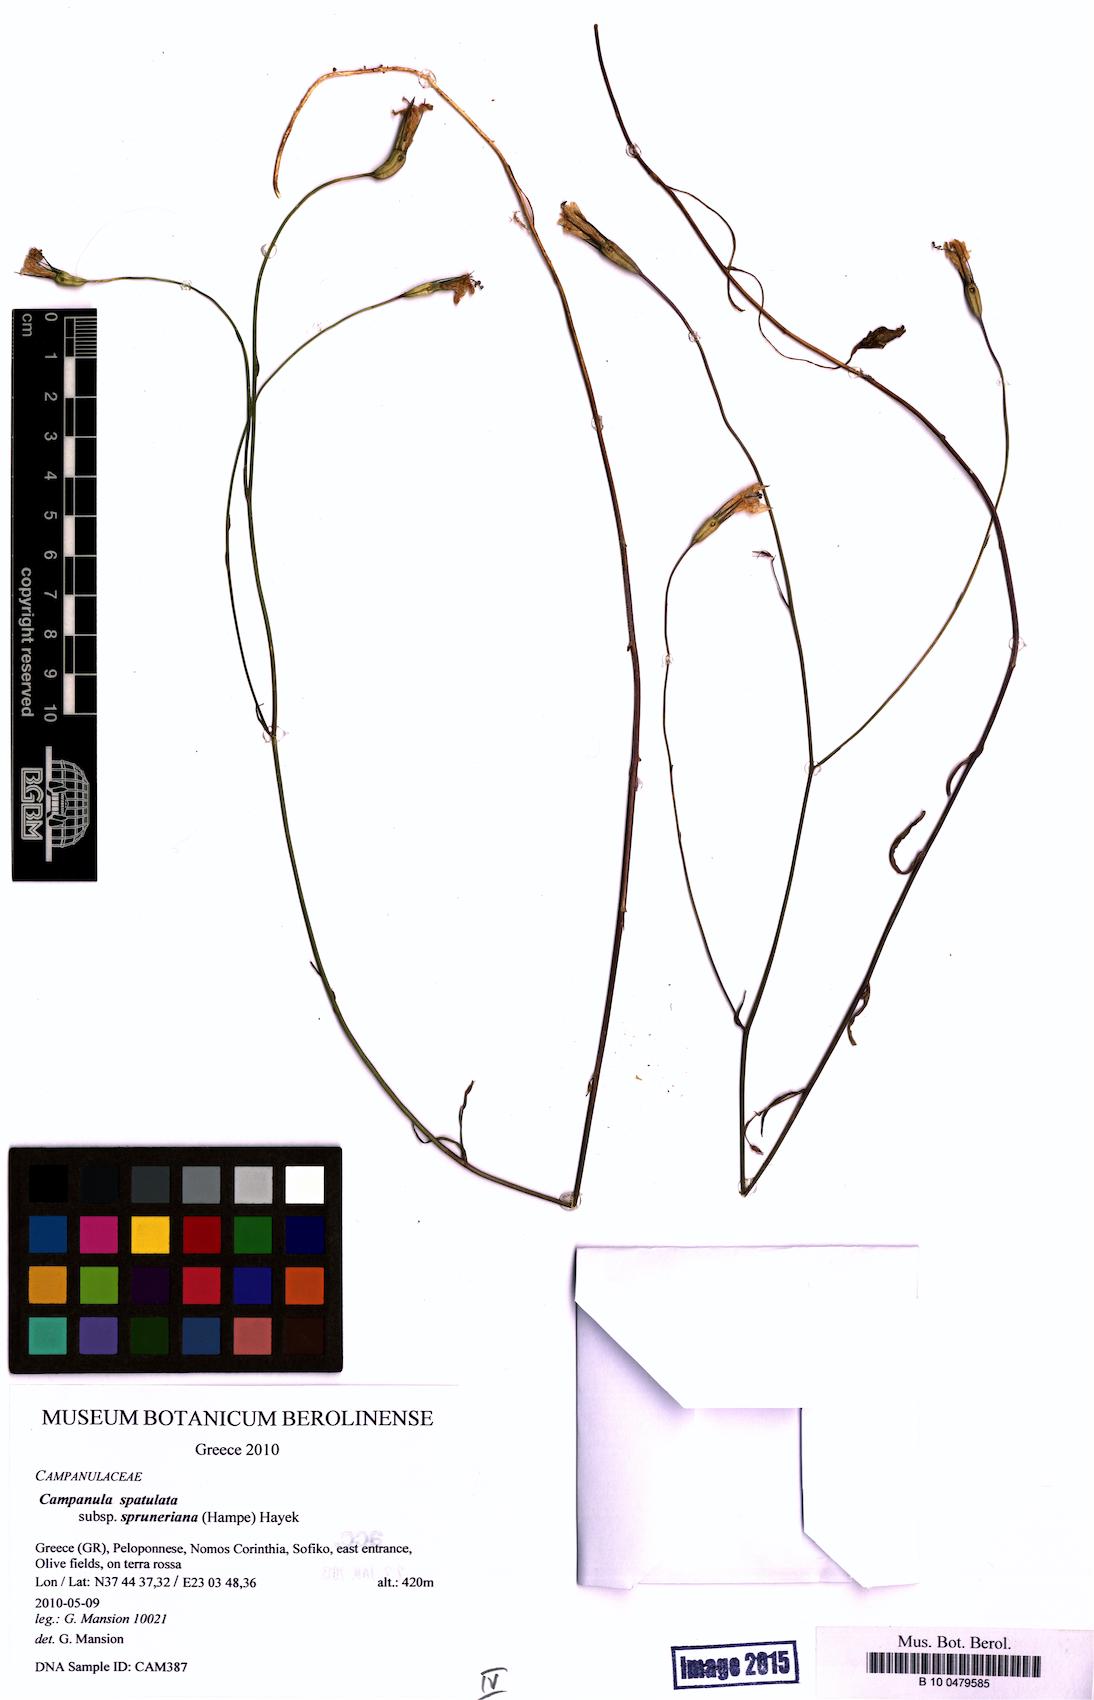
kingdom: Plantae
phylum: Tracheophyta
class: Magnoliopsida
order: Asterales
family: Campanulaceae
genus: Campanula
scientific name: Campanula spatulata
